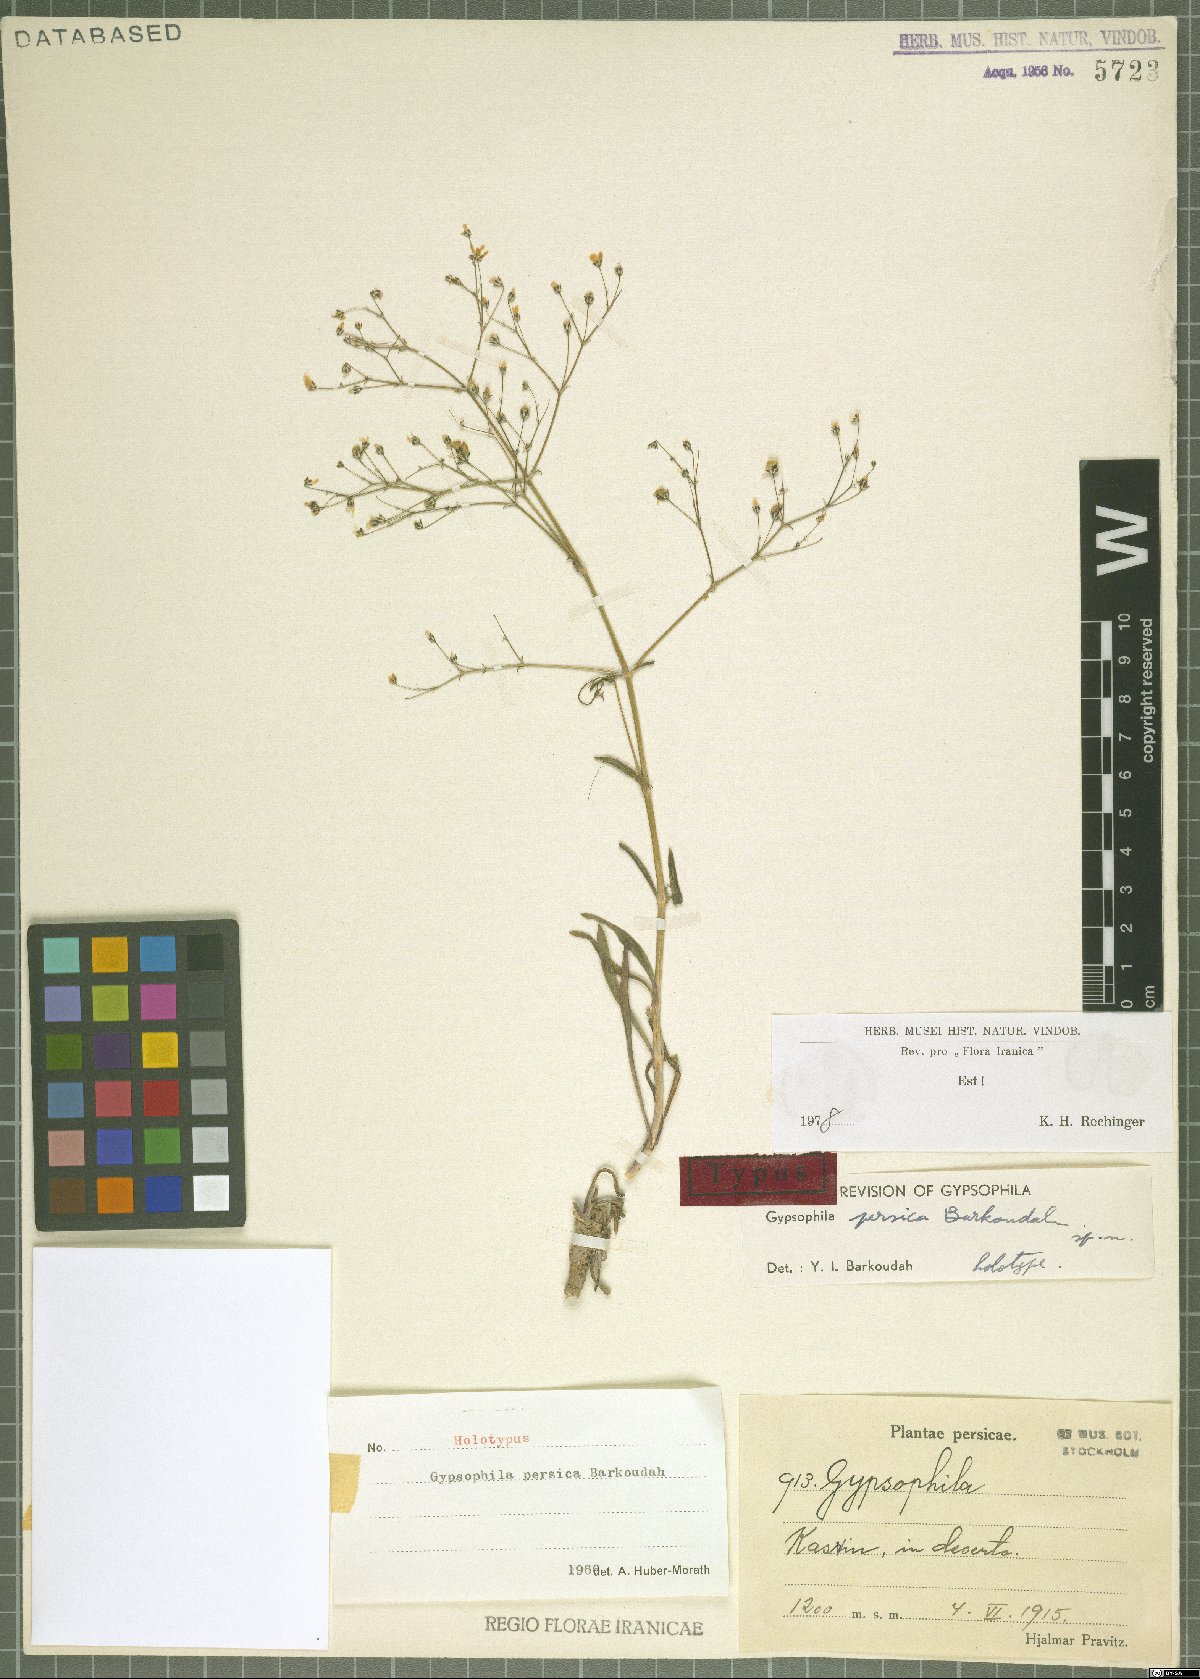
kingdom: Plantae
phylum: Tracheophyta
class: Magnoliopsida
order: Caryophyllales
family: Caryophyllaceae
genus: Gypsophila
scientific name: Gypsophila persica
